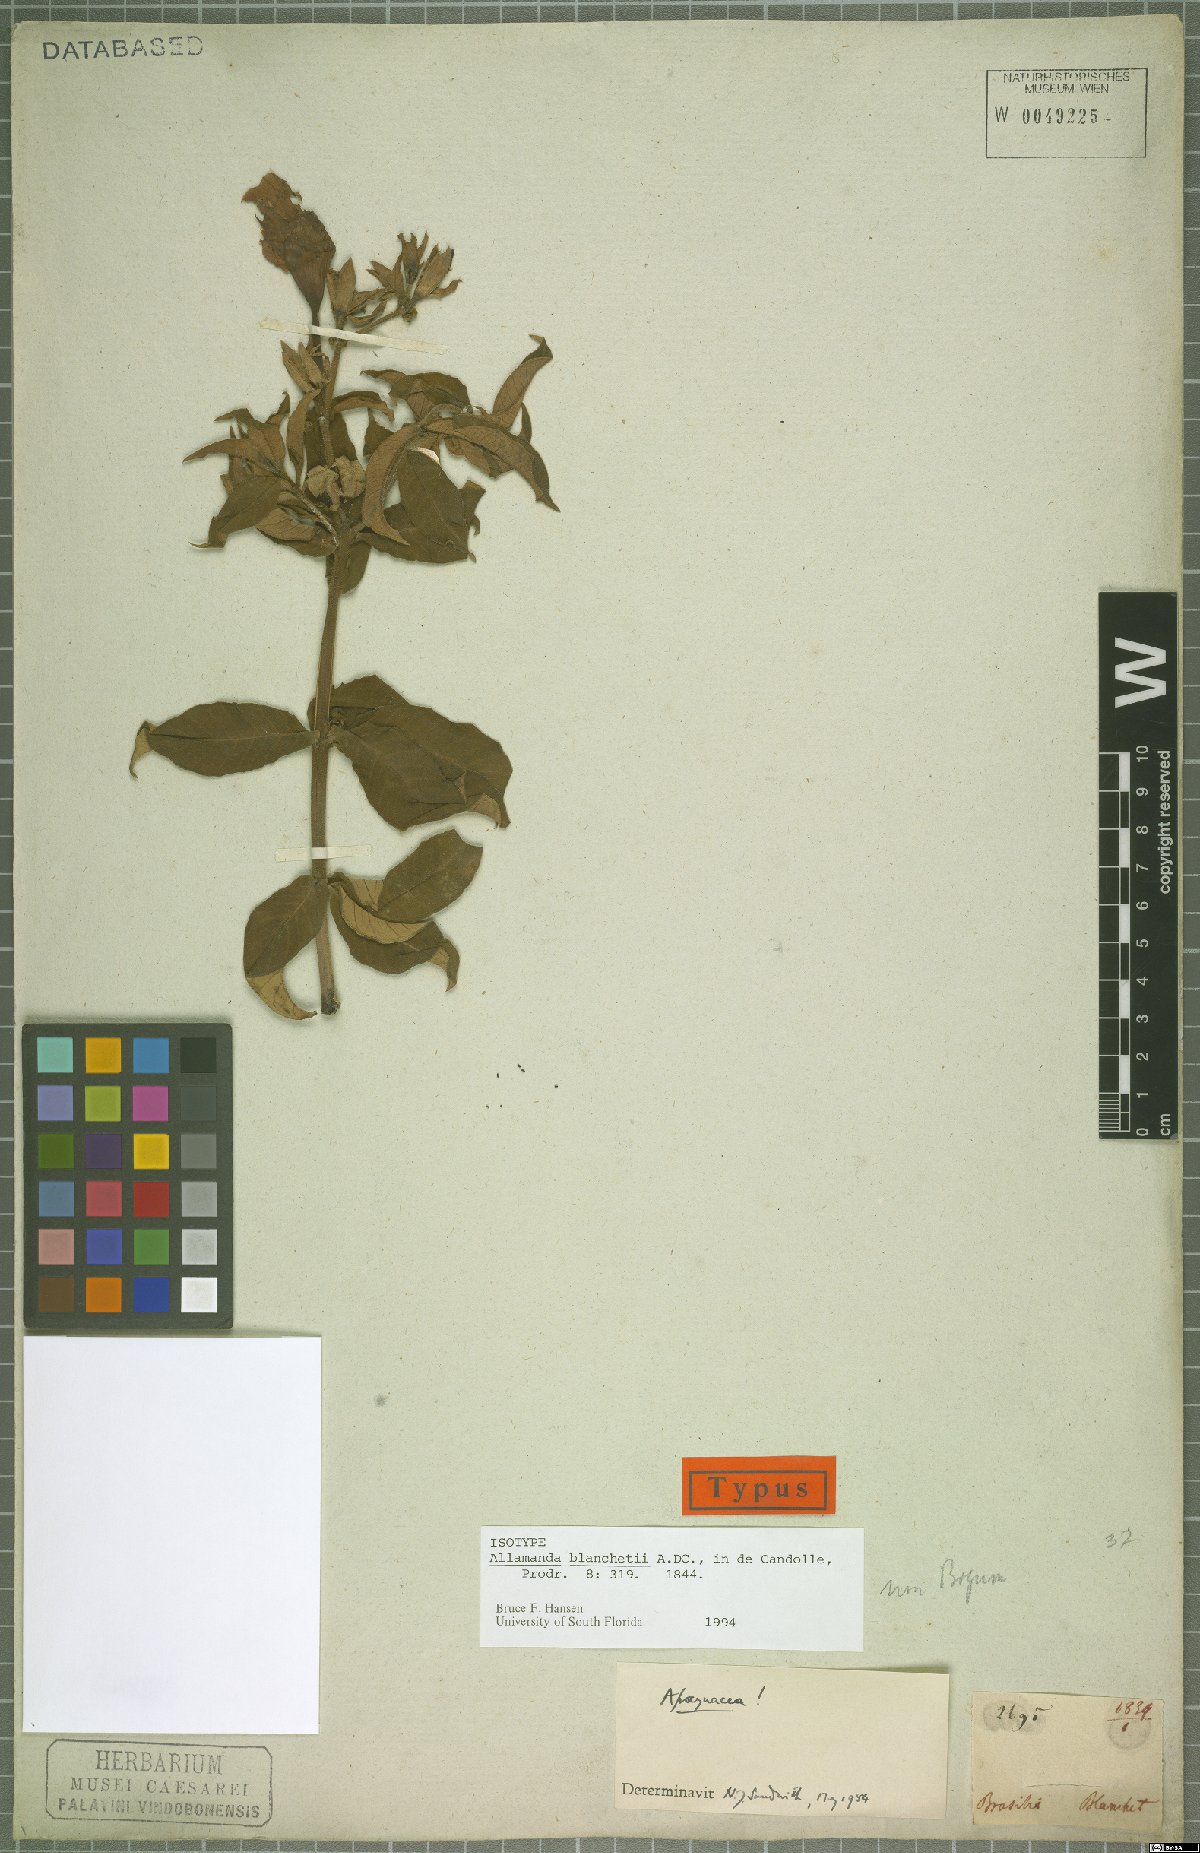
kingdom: Plantae
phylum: Tracheophyta
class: Magnoliopsida
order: Gentianales
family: Apocynaceae
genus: Allamanda
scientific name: Allamanda blanchetii
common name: Purple allamanda
